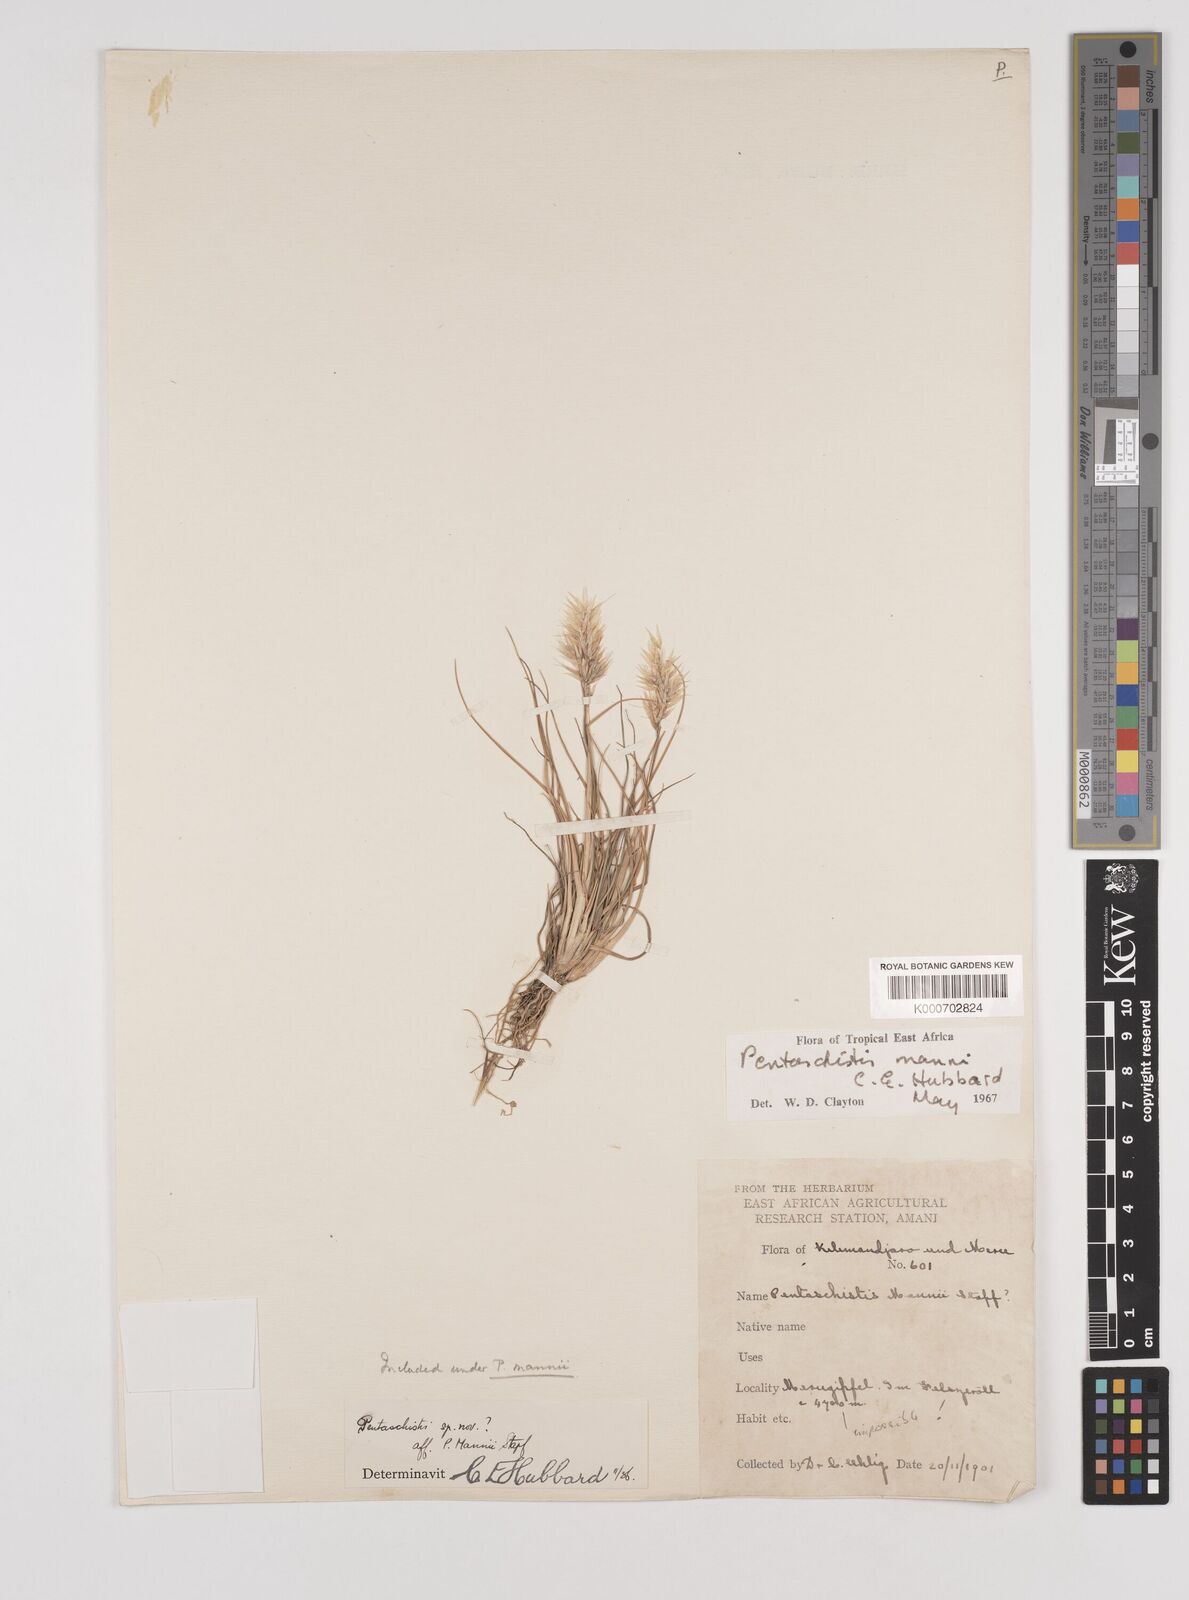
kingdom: Plantae
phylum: Tracheophyta
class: Liliopsida
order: Poales
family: Poaceae
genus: Pentameris
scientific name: Pentameris pictigluma
